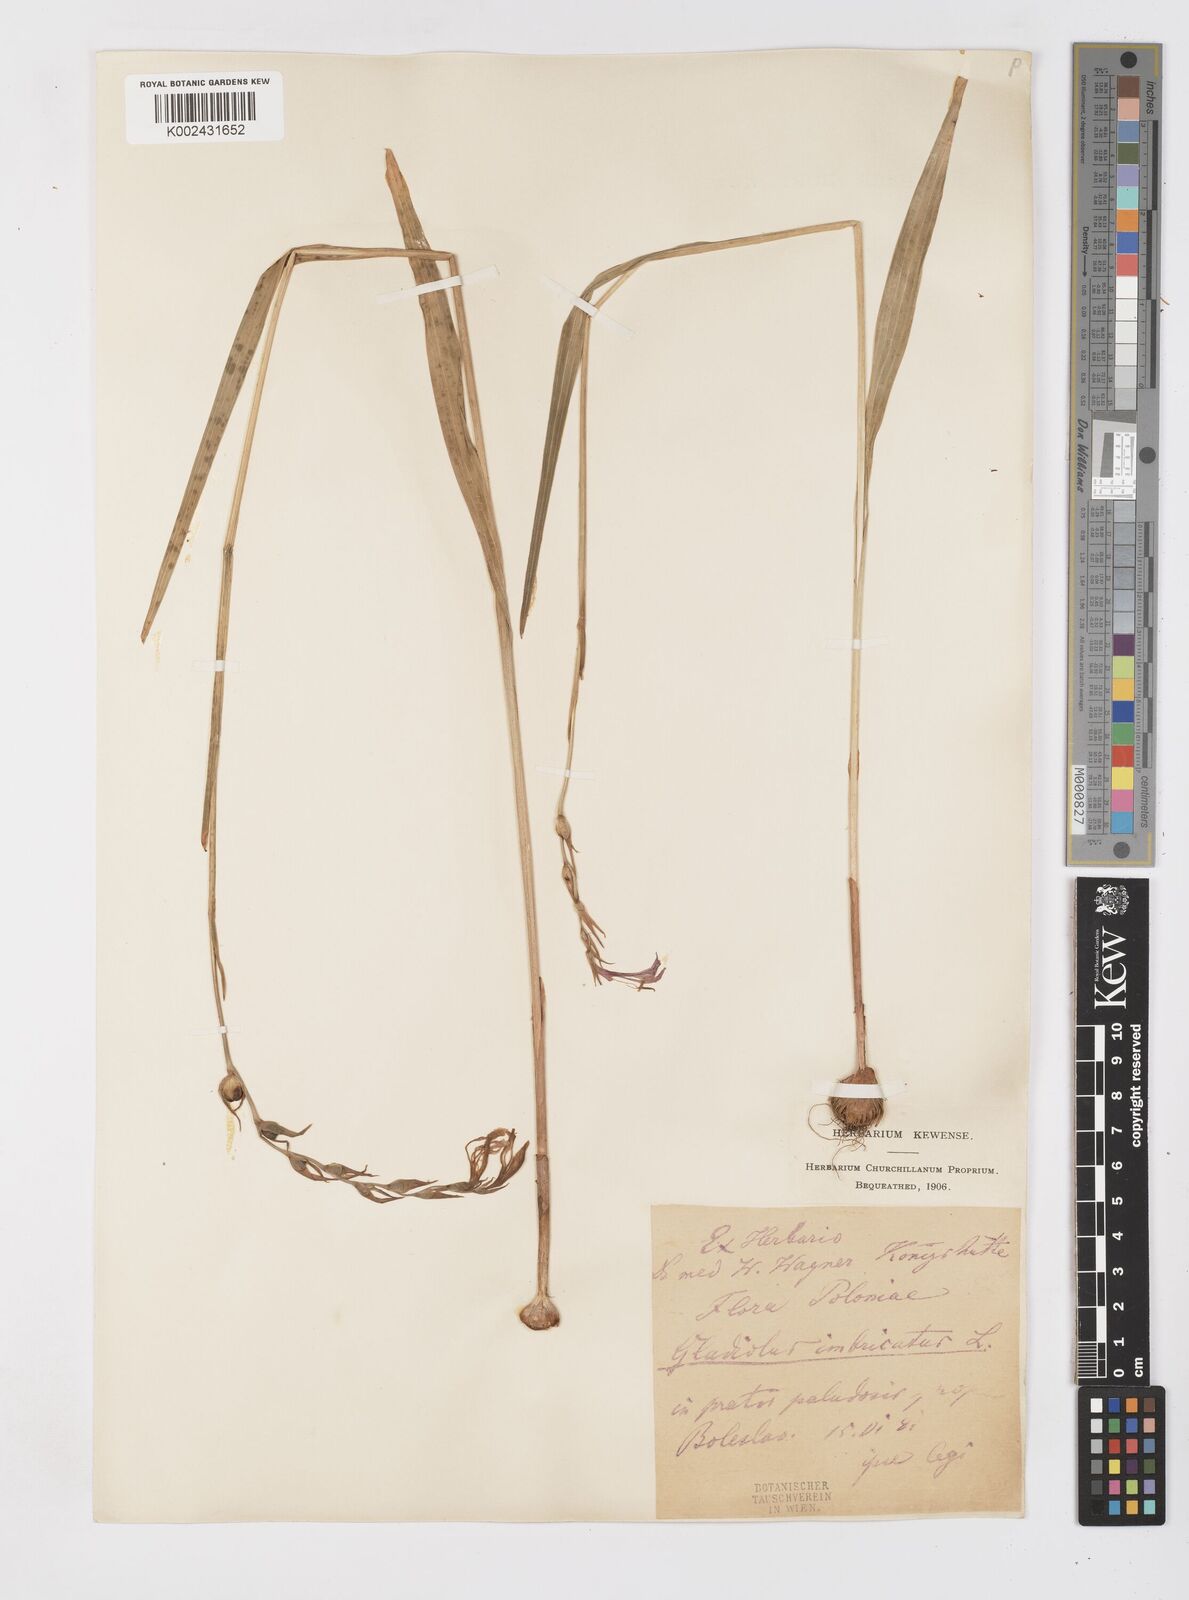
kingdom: Plantae
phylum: Tracheophyta
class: Liliopsida
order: Asparagales
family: Iridaceae
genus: Gladiolus
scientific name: Gladiolus imbricatus
